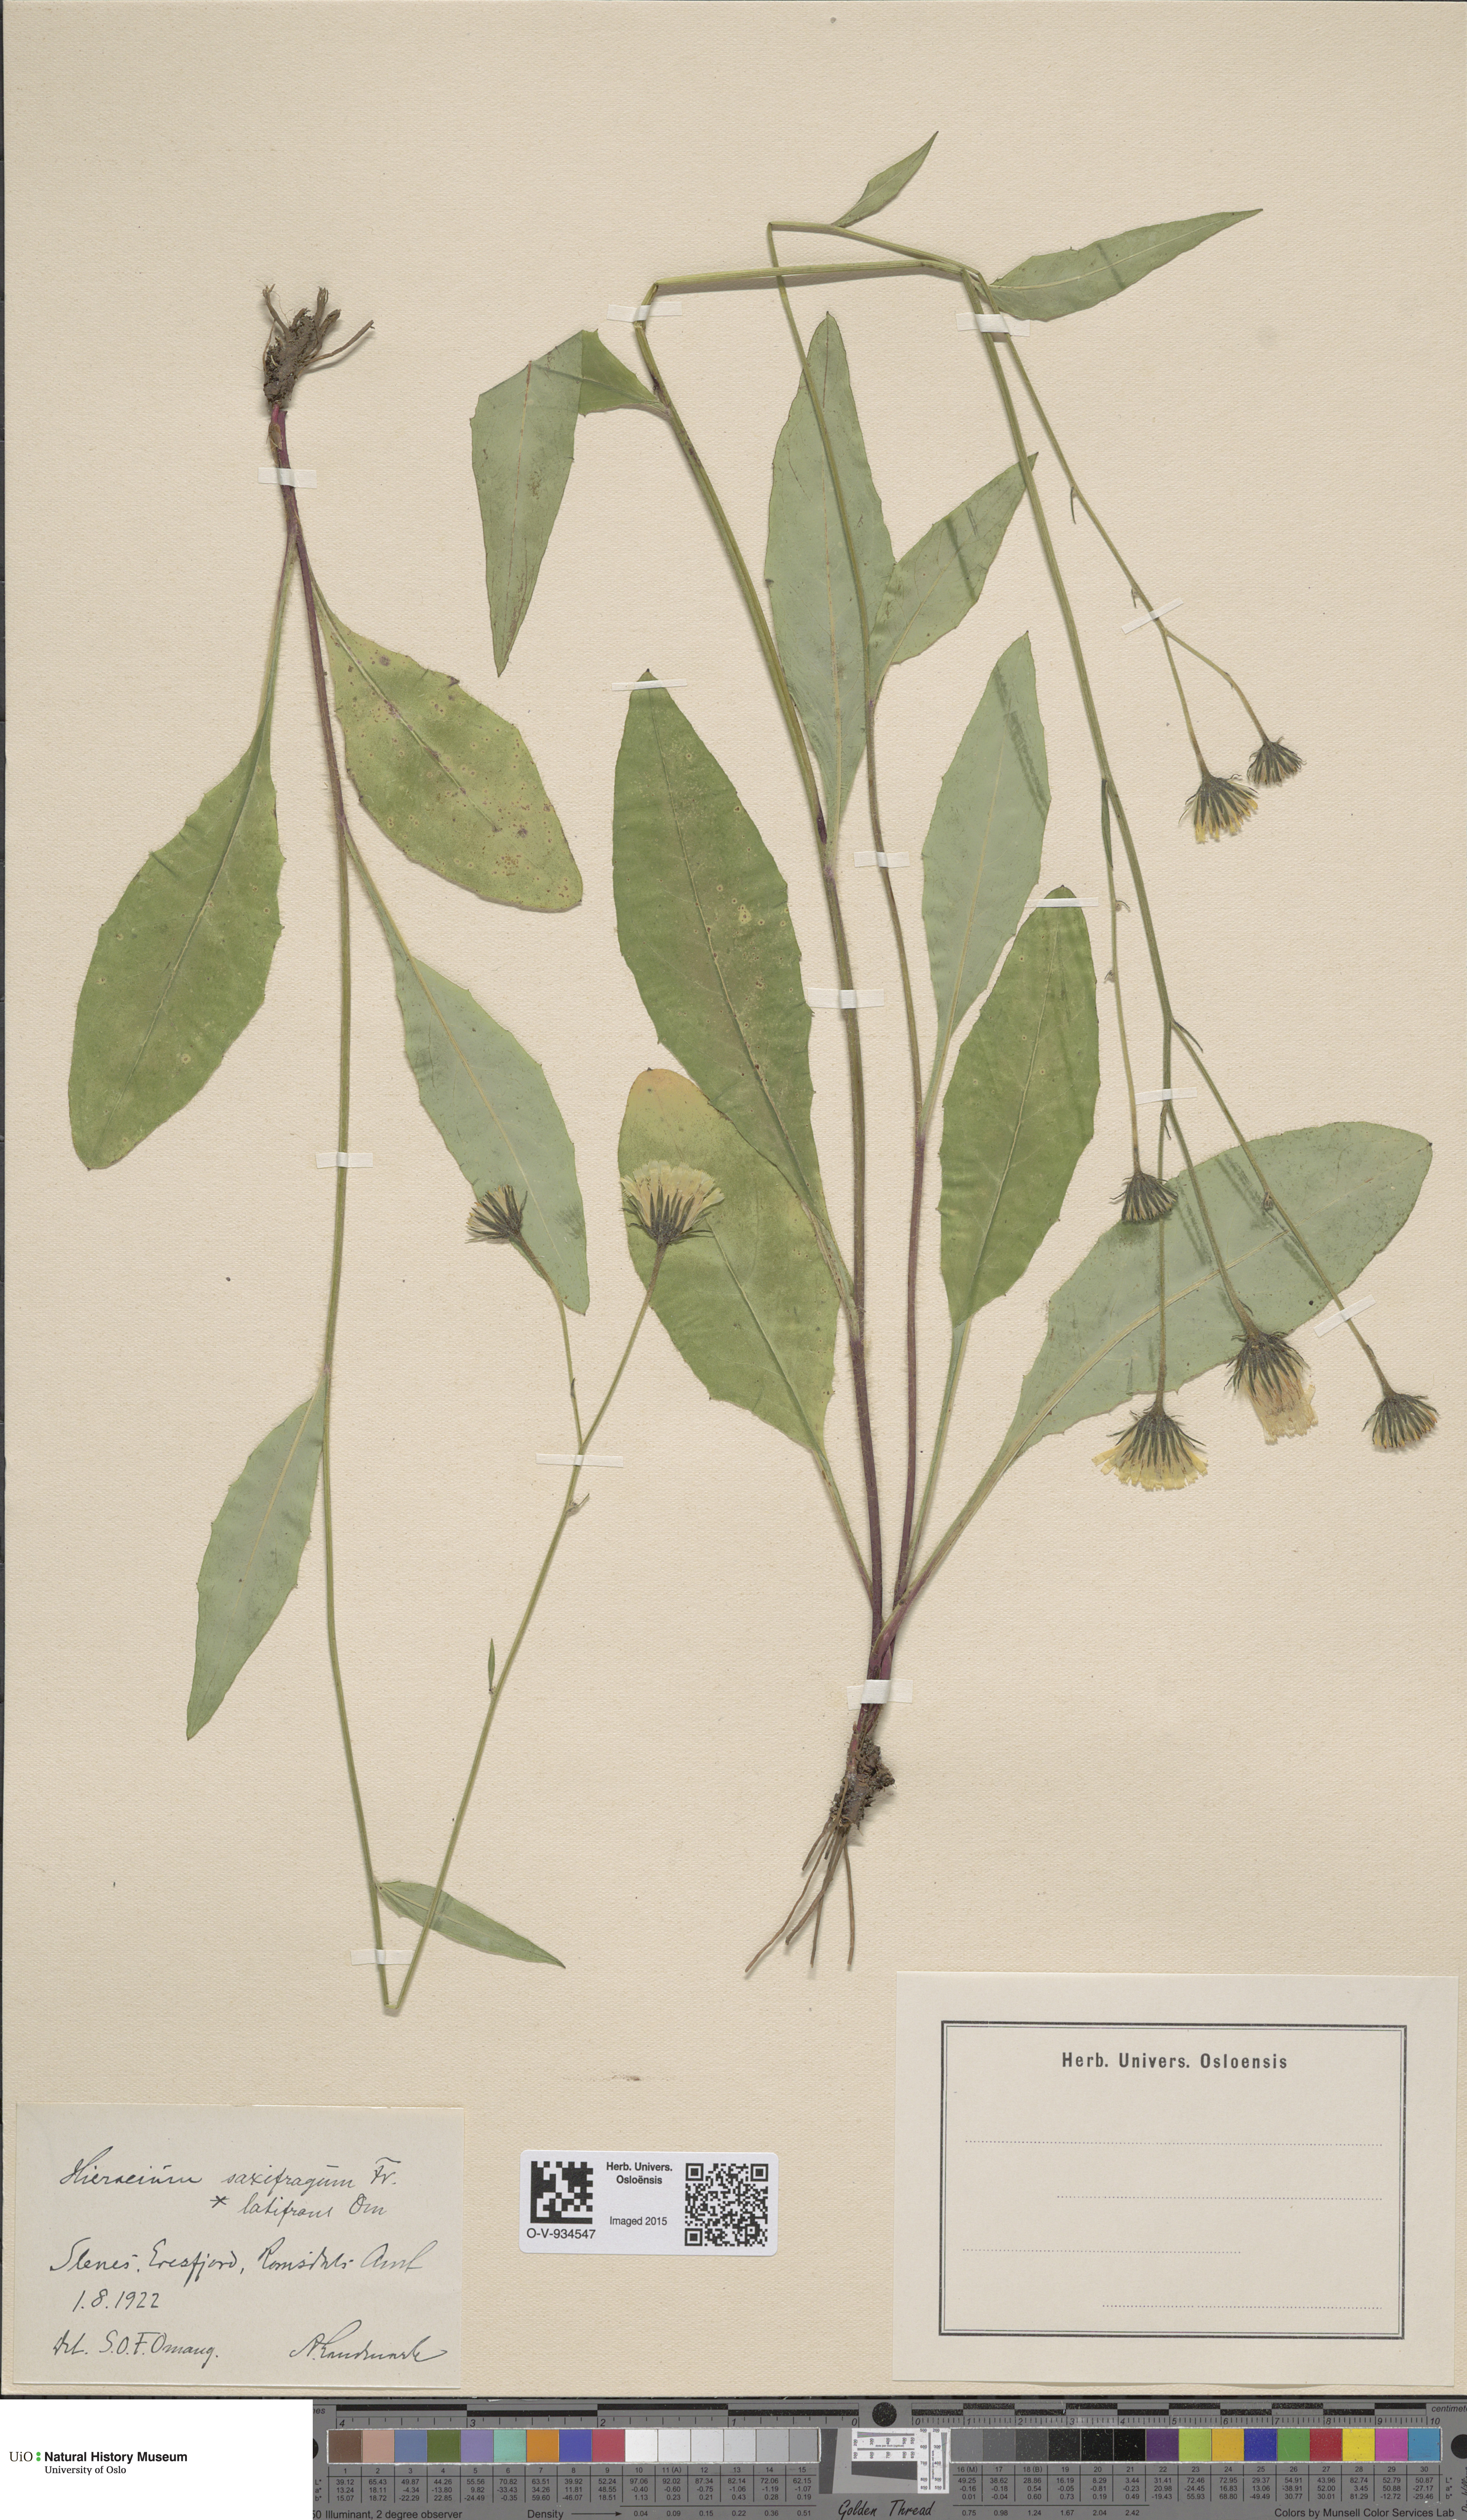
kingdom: Plantae
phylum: Tracheophyta
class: Magnoliopsida
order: Asterales
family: Asteraceae
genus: Hieracium
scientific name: Hieracium saxifragum
